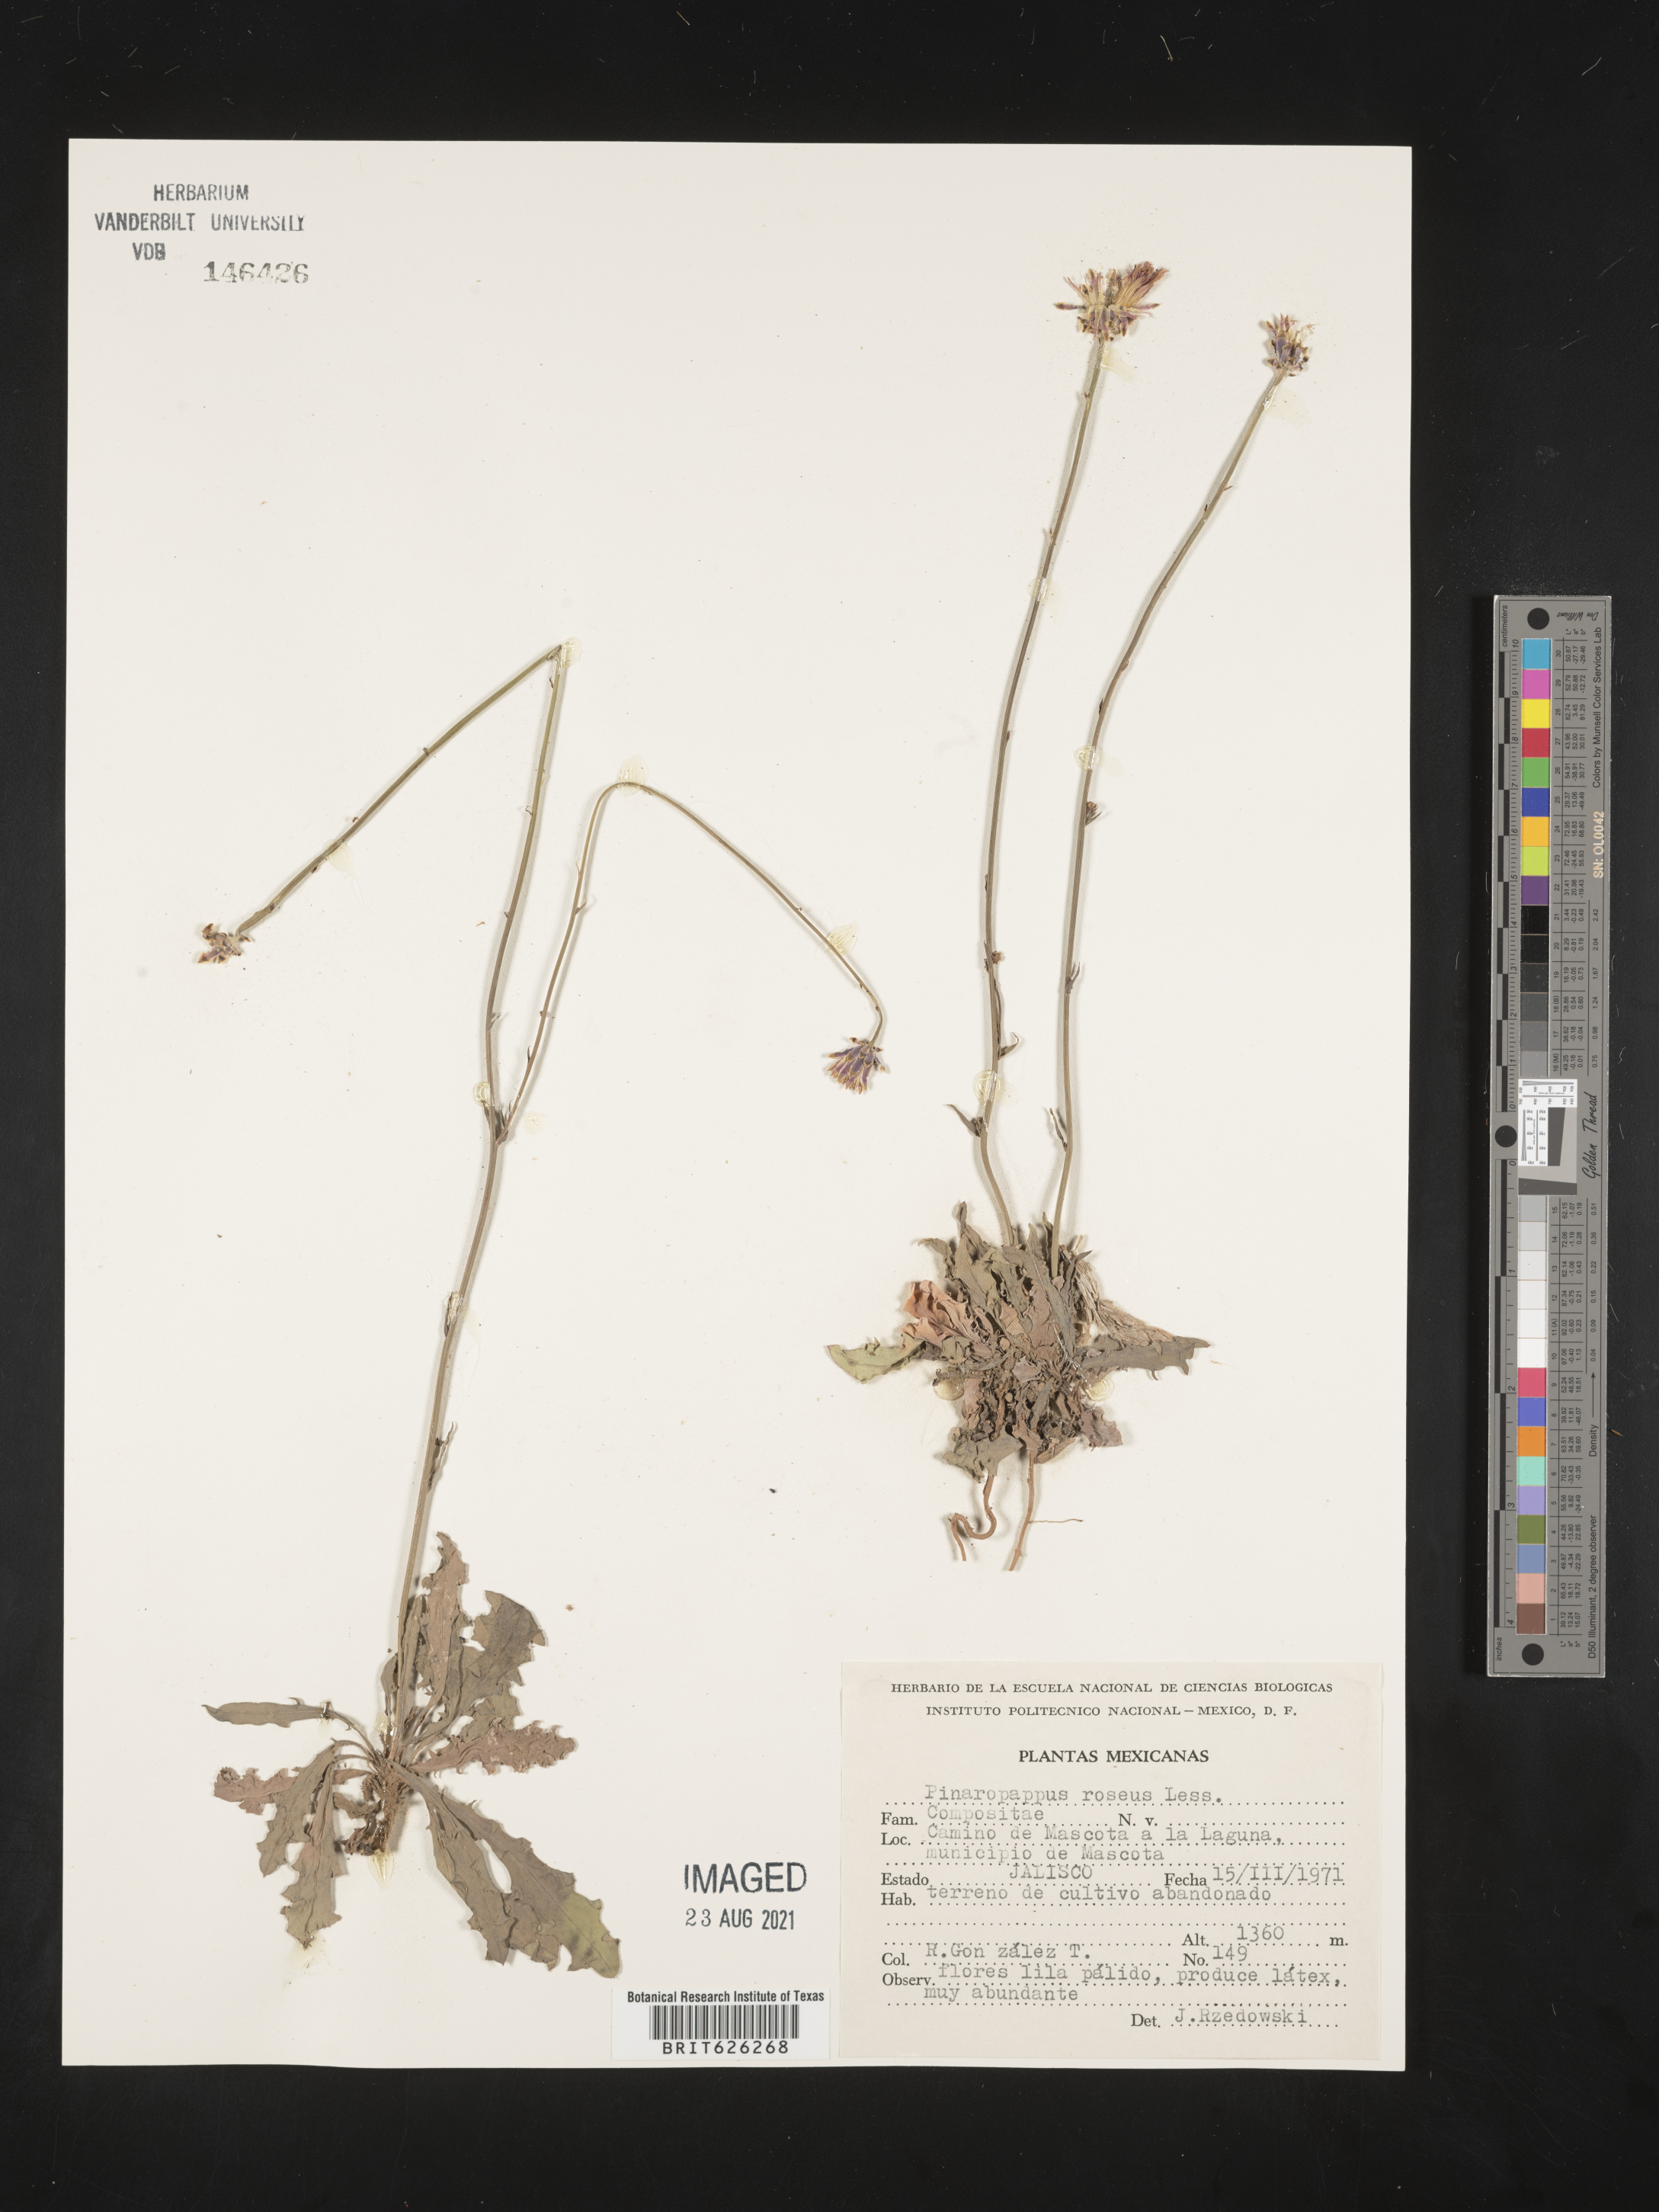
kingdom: Plantae
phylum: Tracheophyta
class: Magnoliopsida
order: Asterales
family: Asteraceae
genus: Pinaropappus
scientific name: Pinaropappus
